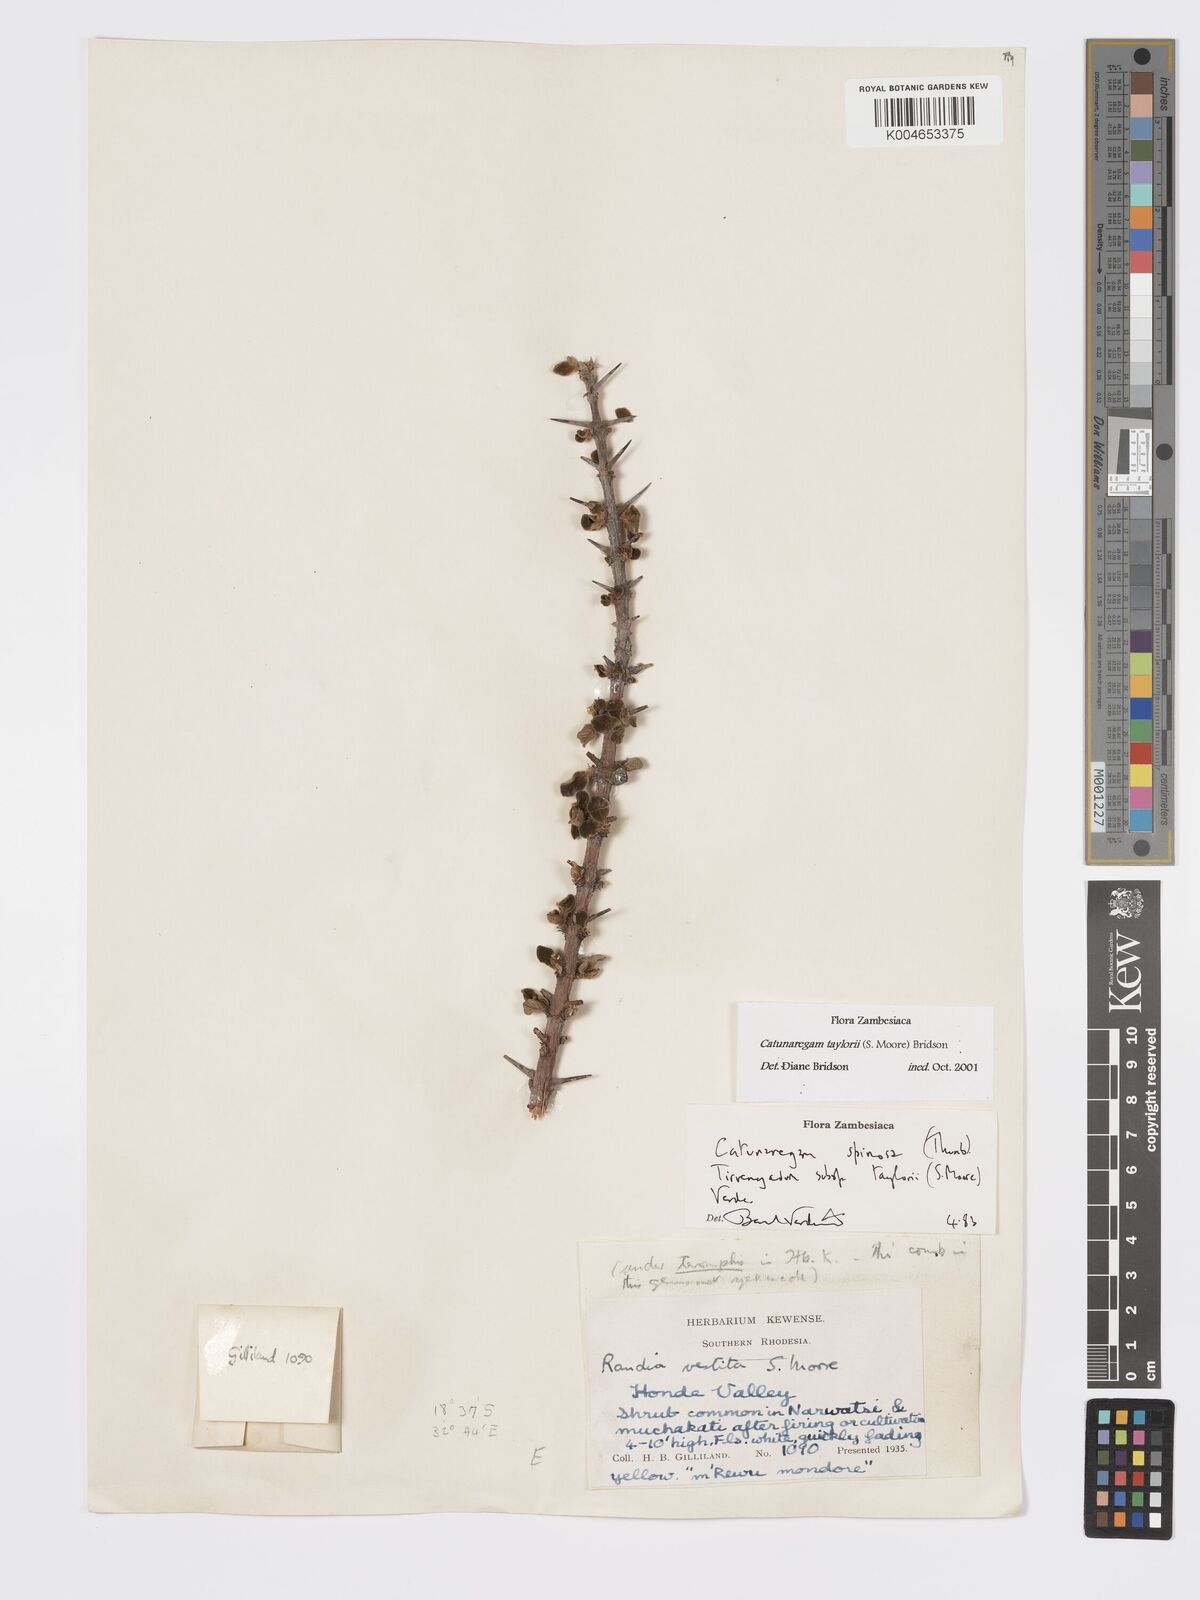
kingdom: Plantae
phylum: Tracheophyta
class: Magnoliopsida
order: Gentianales
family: Rubiaceae
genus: Catunaregam
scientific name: Catunaregam obovata
